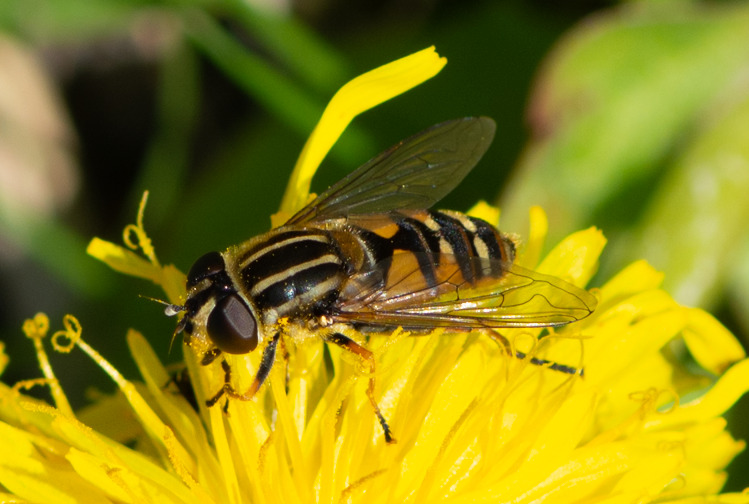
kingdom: Animalia
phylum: Arthropoda
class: Insecta
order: Diptera
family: Syrphidae
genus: Helophilus
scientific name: Helophilus pendulus
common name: Almindelig sumpsvirreflue
